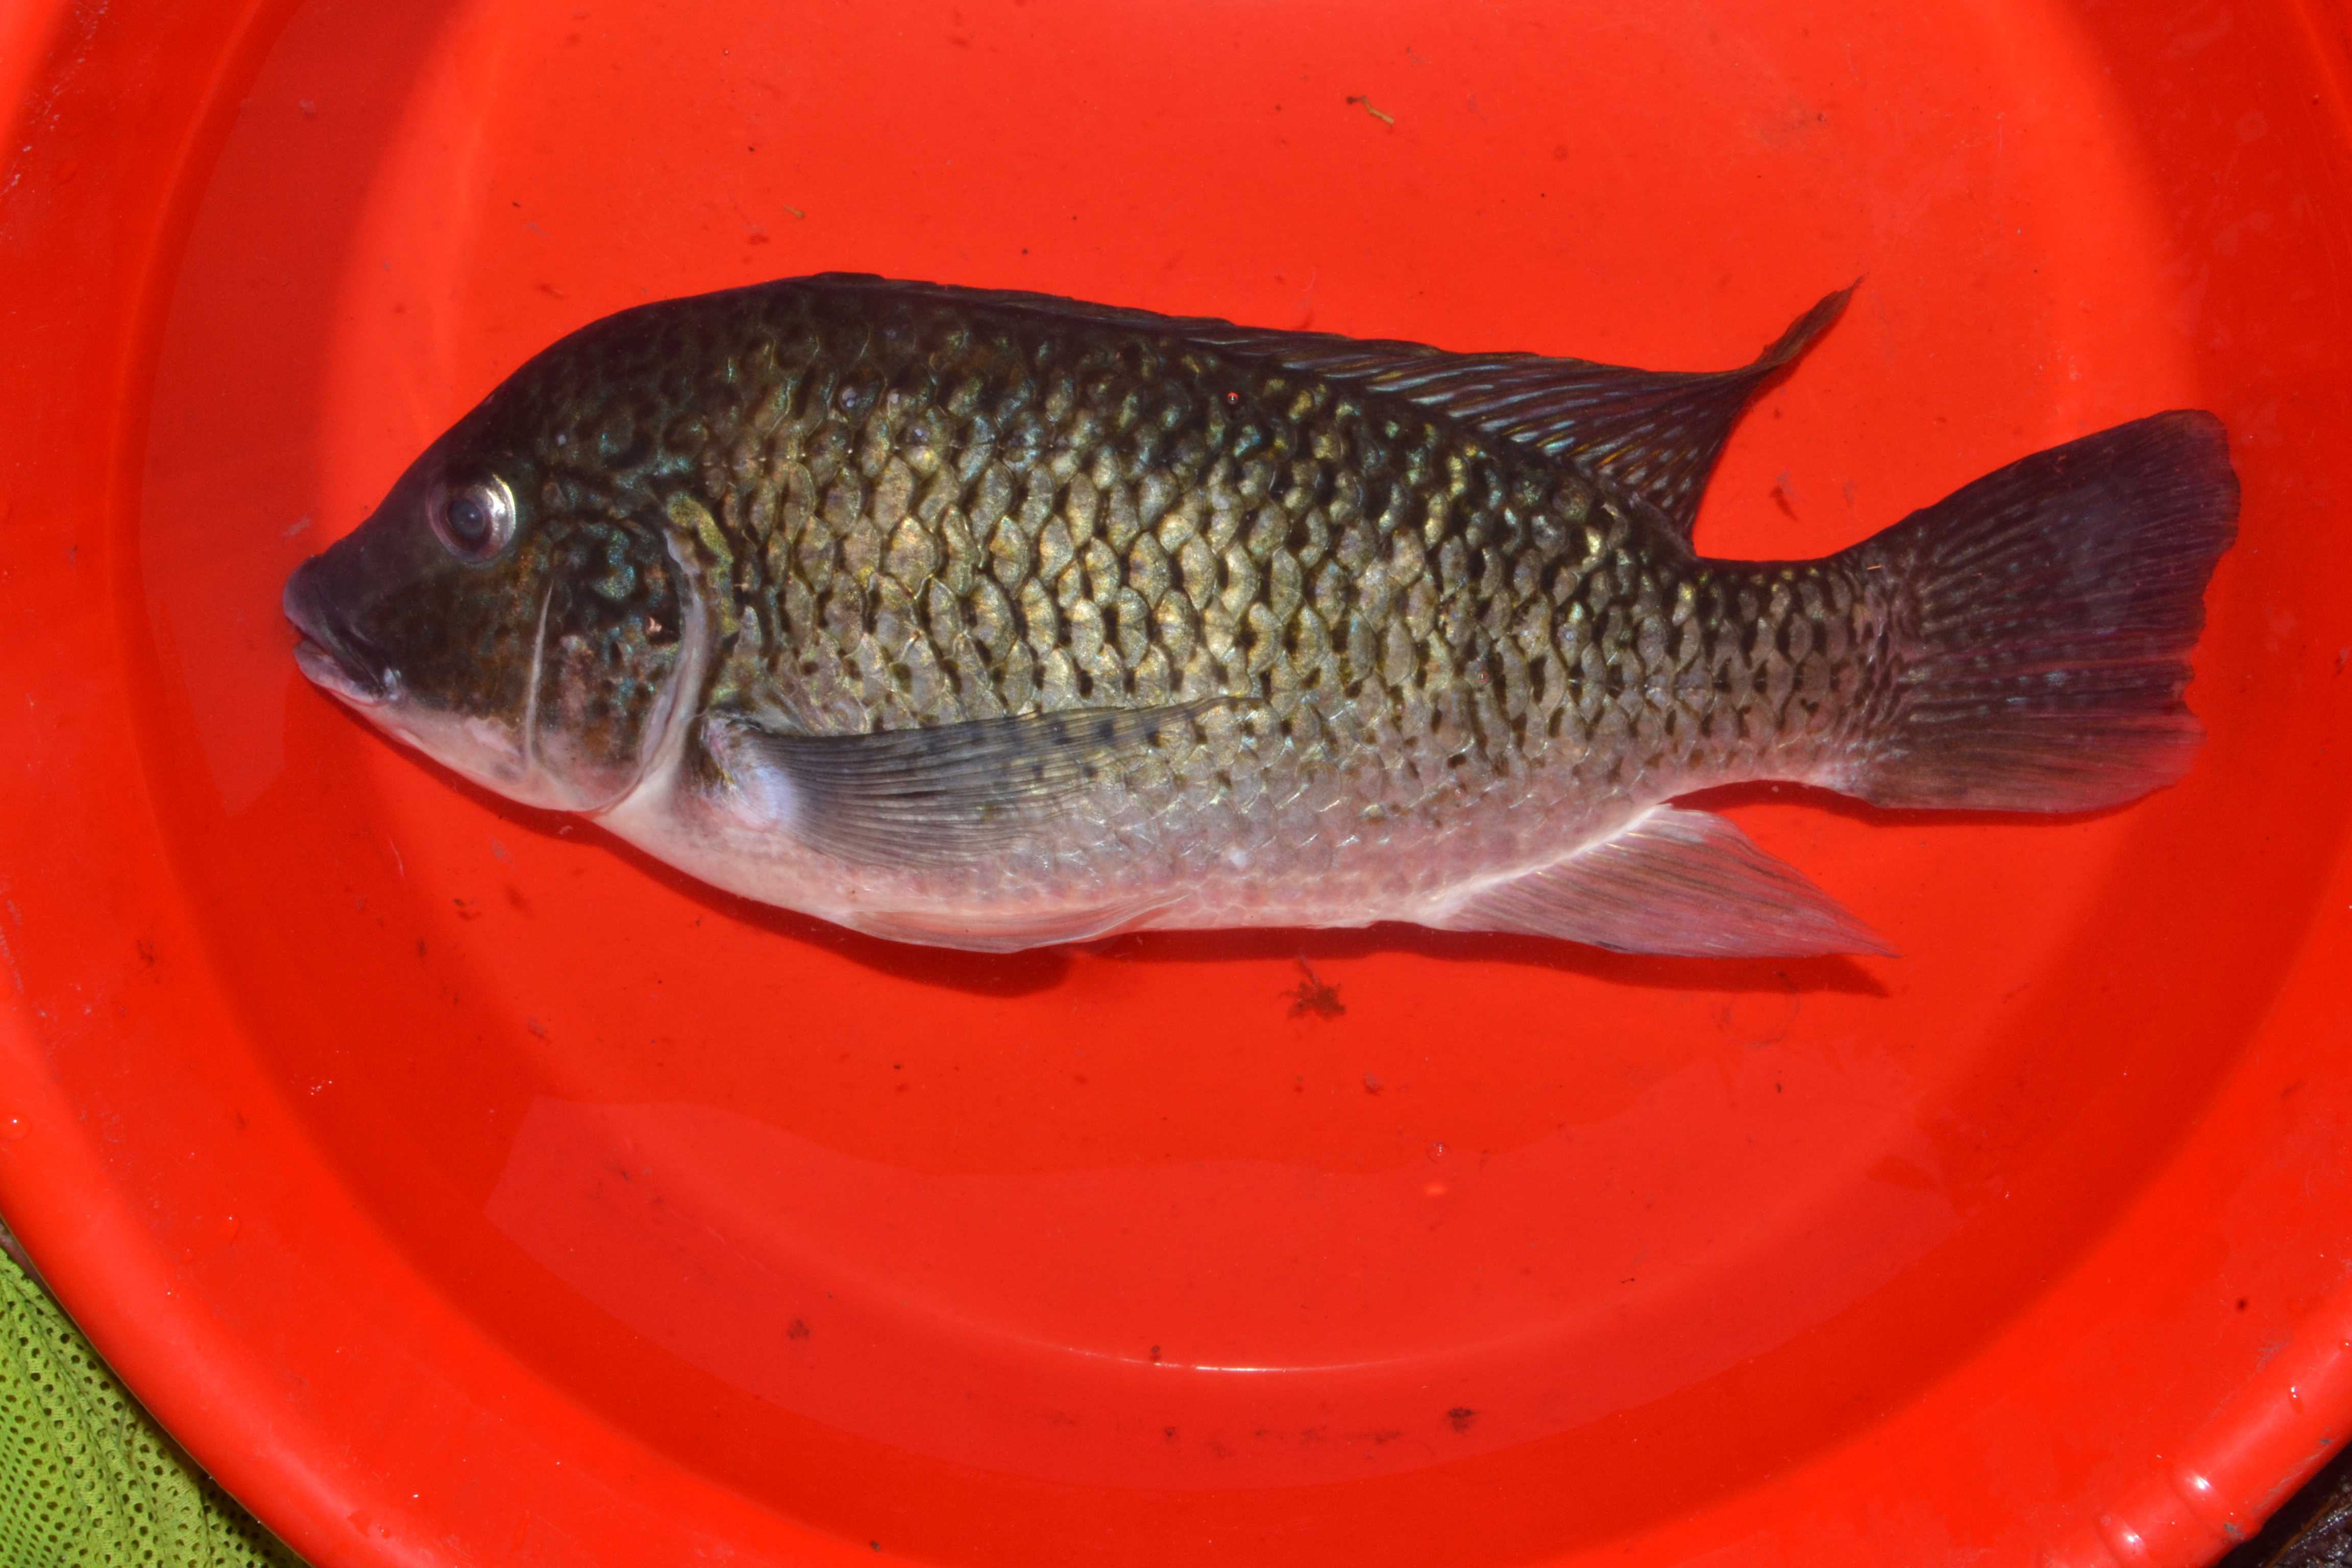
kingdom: Animalia
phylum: Chordata
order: Perciformes
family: Anabantidae
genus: Ctenopoma
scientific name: Ctenopoma multispine
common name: Manyspined climbing perch
